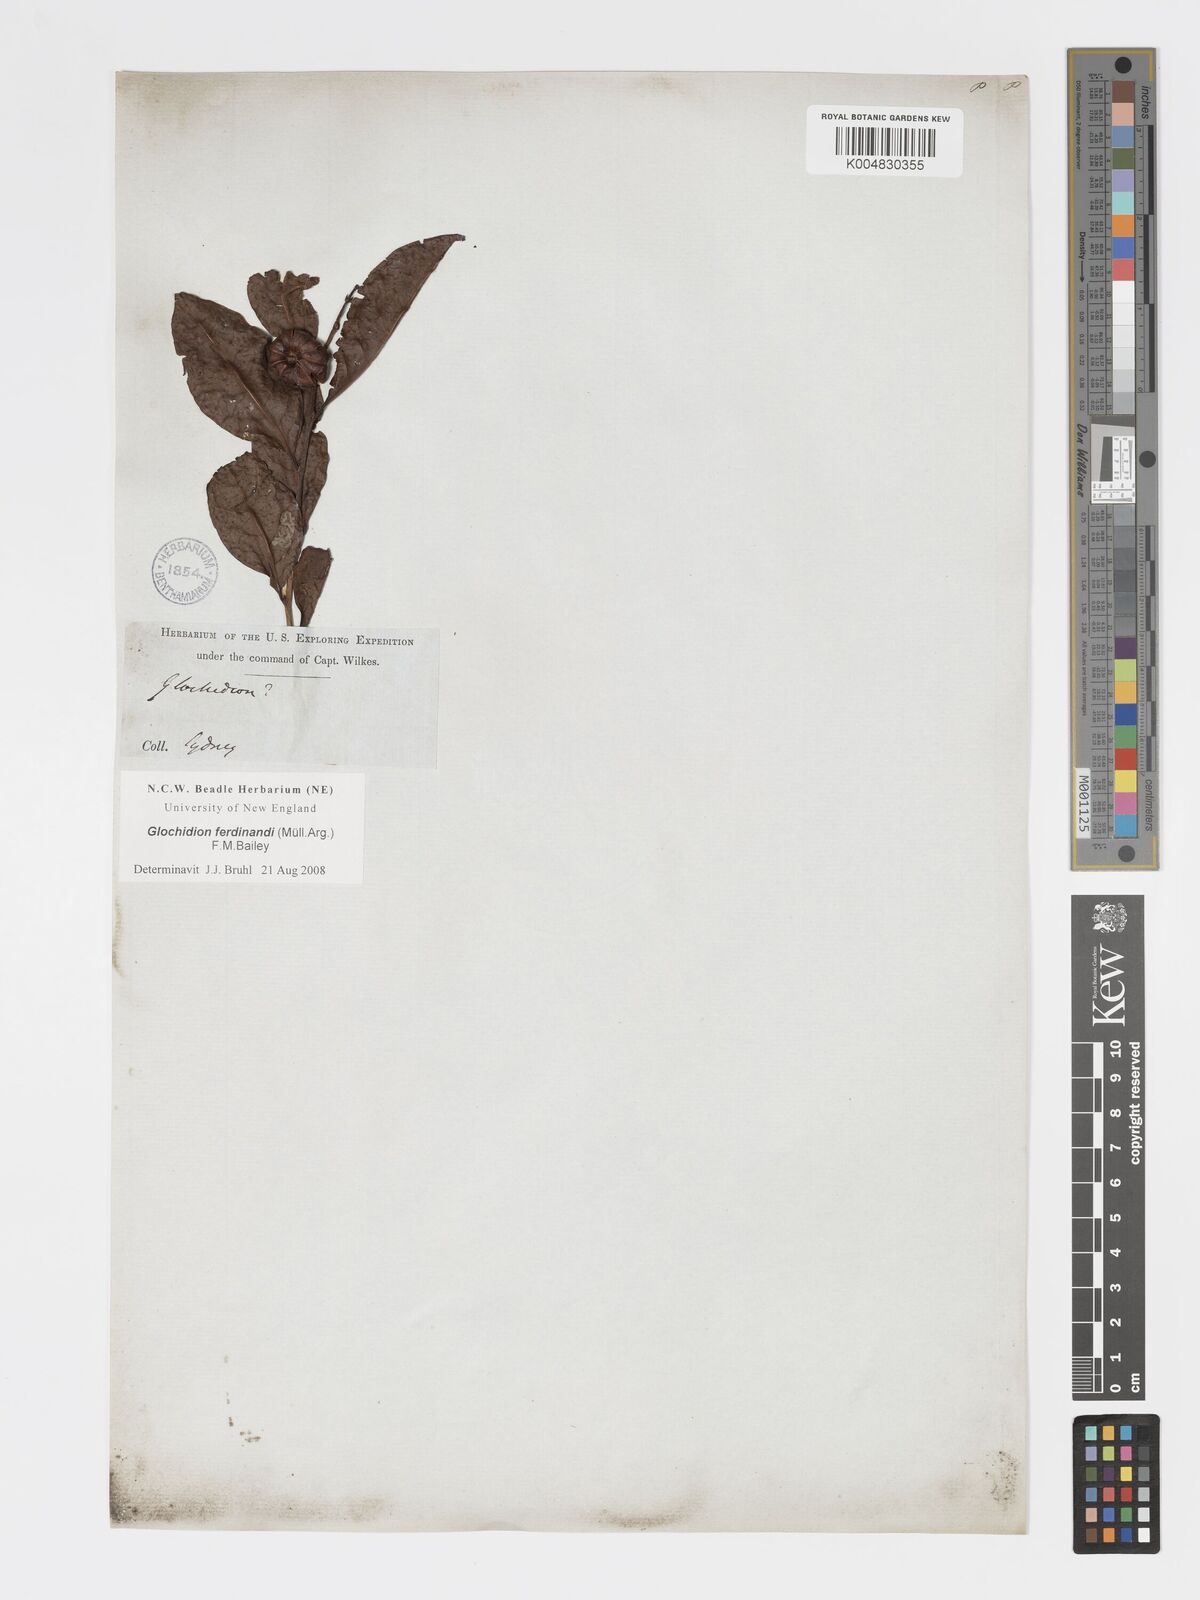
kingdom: Plantae
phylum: Tracheophyta
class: Magnoliopsida
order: Malpighiales
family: Phyllanthaceae
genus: Glochidion
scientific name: Glochidion ferdinandi
